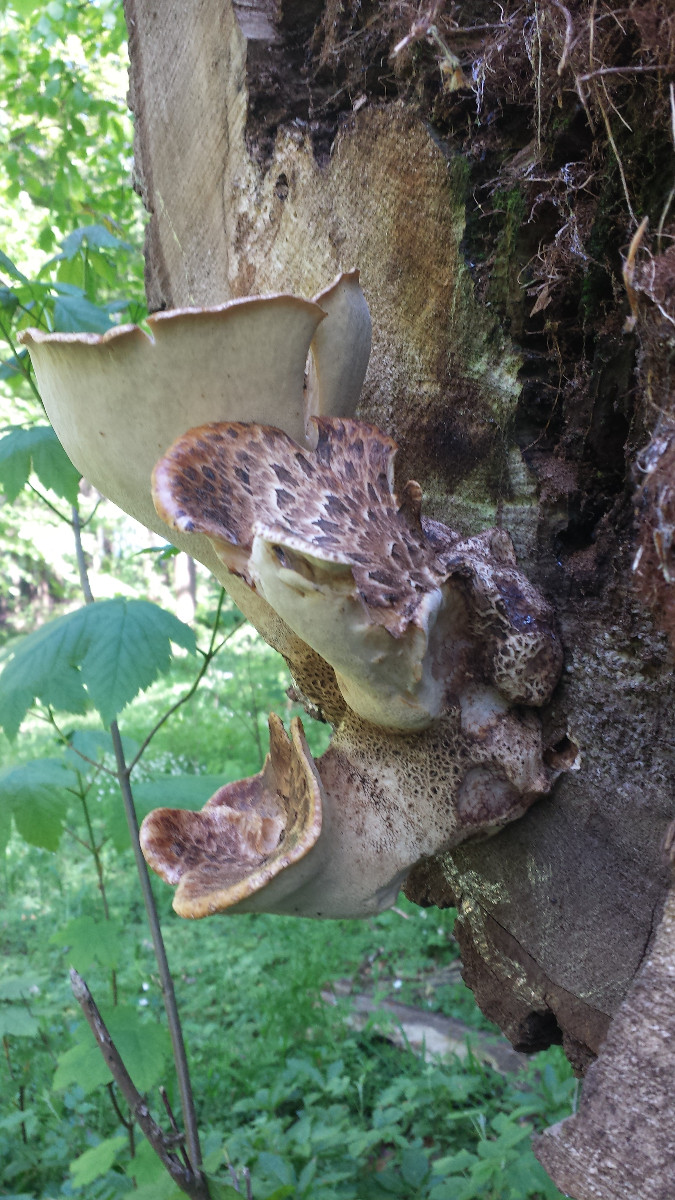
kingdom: Fungi
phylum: Basidiomycota
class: Agaricomycetes
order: Polyporales
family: Polyporaceae
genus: Cerioporus
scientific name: Cerioporus squamosus
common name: skællet stilkporesvamp
